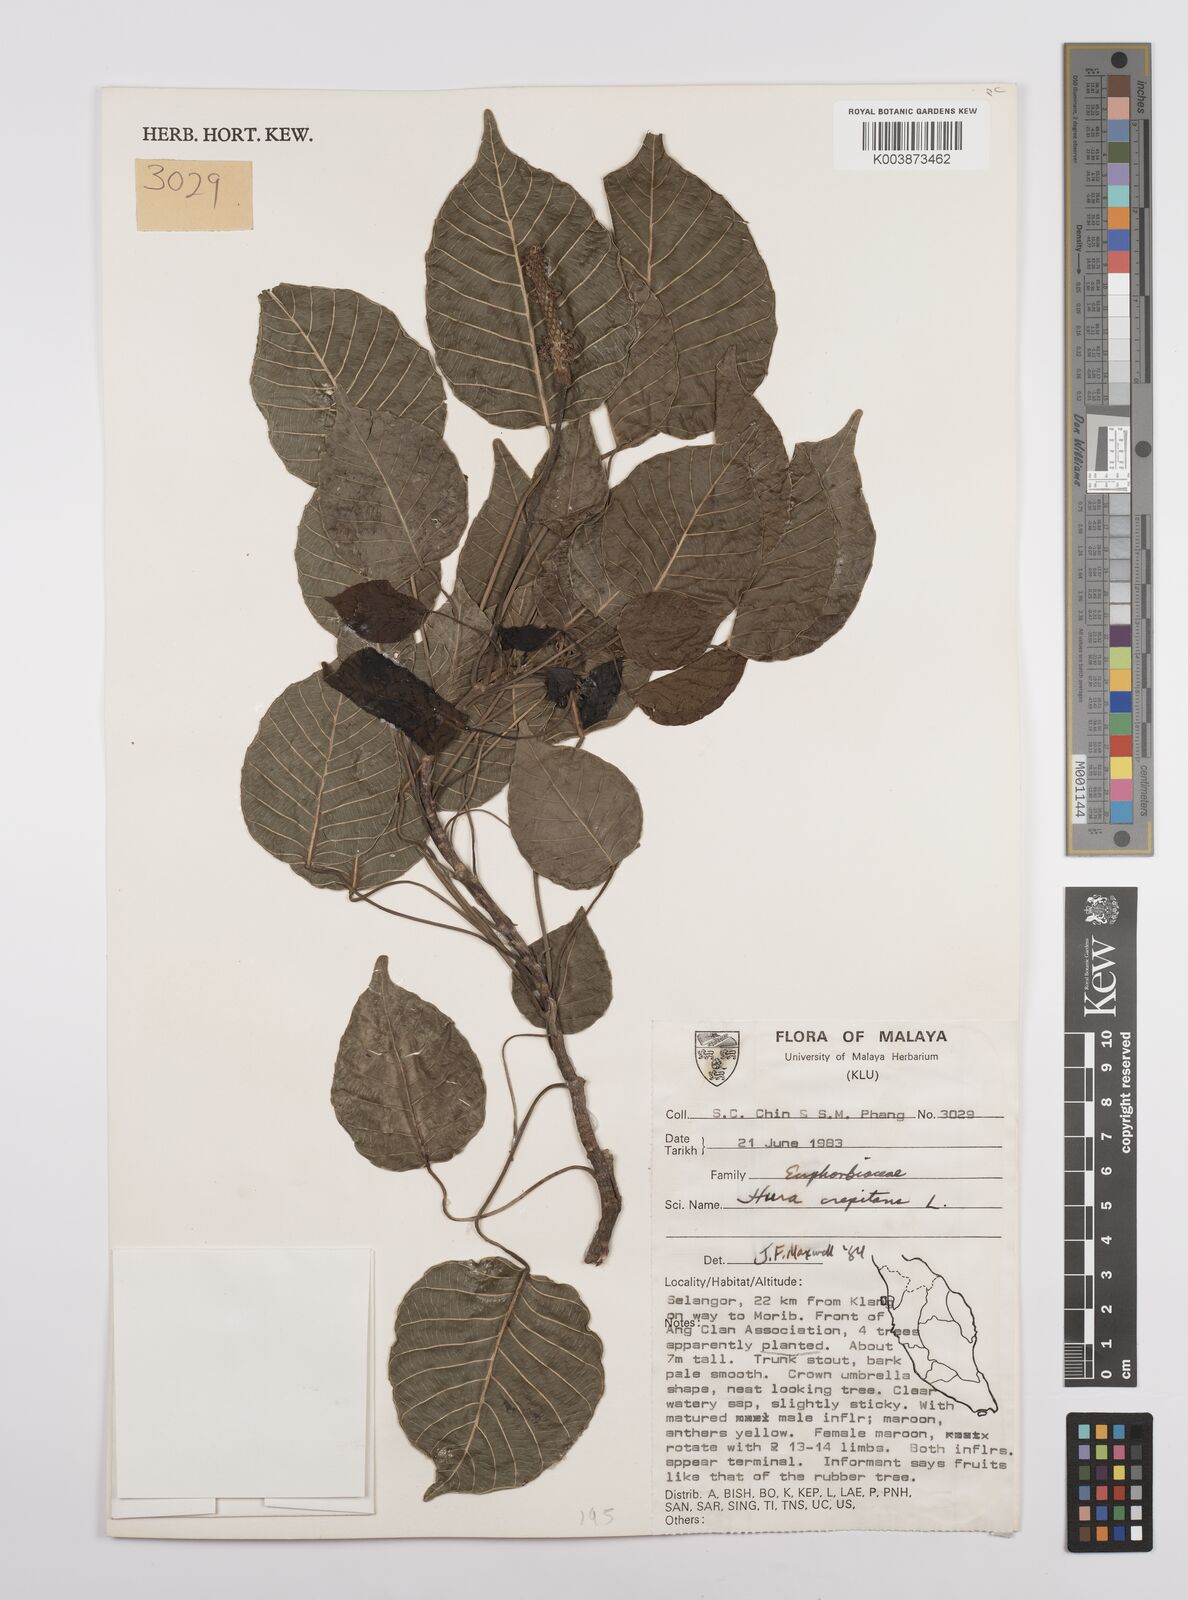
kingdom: Plantae
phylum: Tracheophyta
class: Magnoliopsida
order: Malpighiales
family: Euphorbiaceae
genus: Hura
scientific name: Hura crepitans
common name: Sandboxtree
